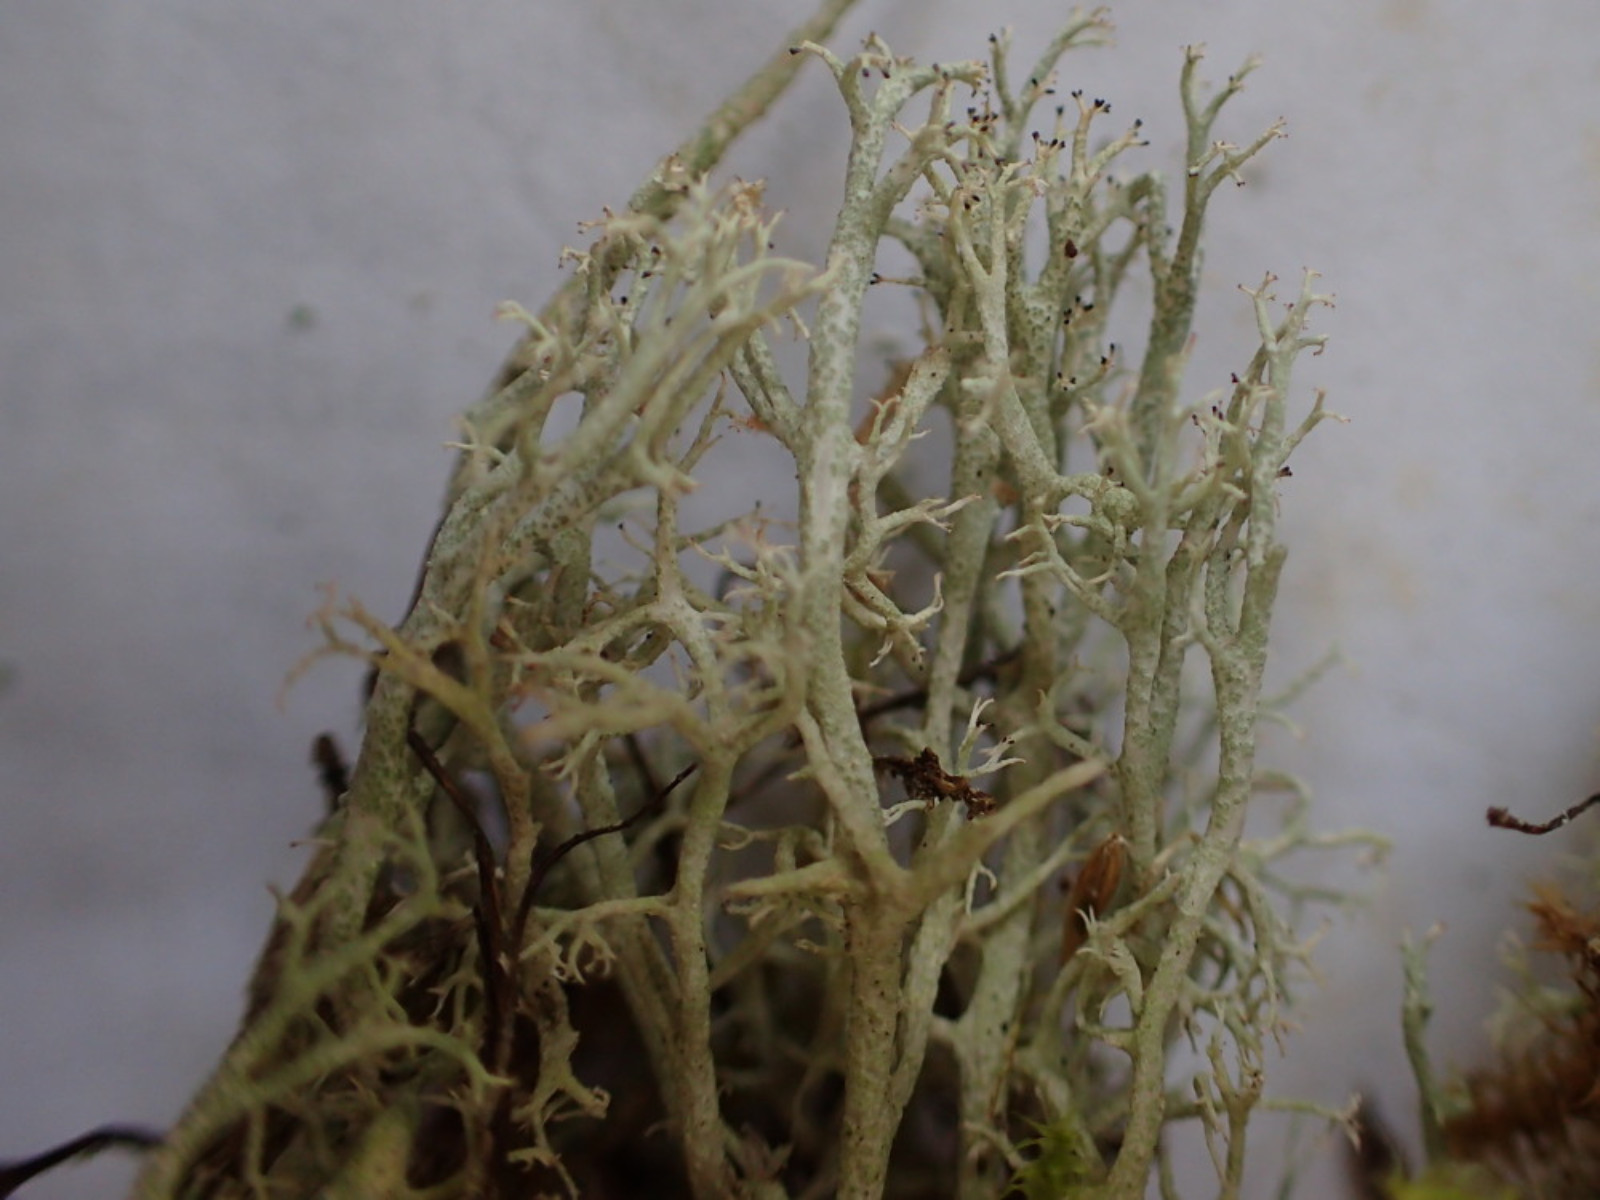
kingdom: Fungi
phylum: Ascomycota
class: Lecanoromycetes
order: Lecanorales
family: Cladoniaceae
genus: Cladonia
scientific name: Cladonia portentosa
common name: hede-rensdyrlav
